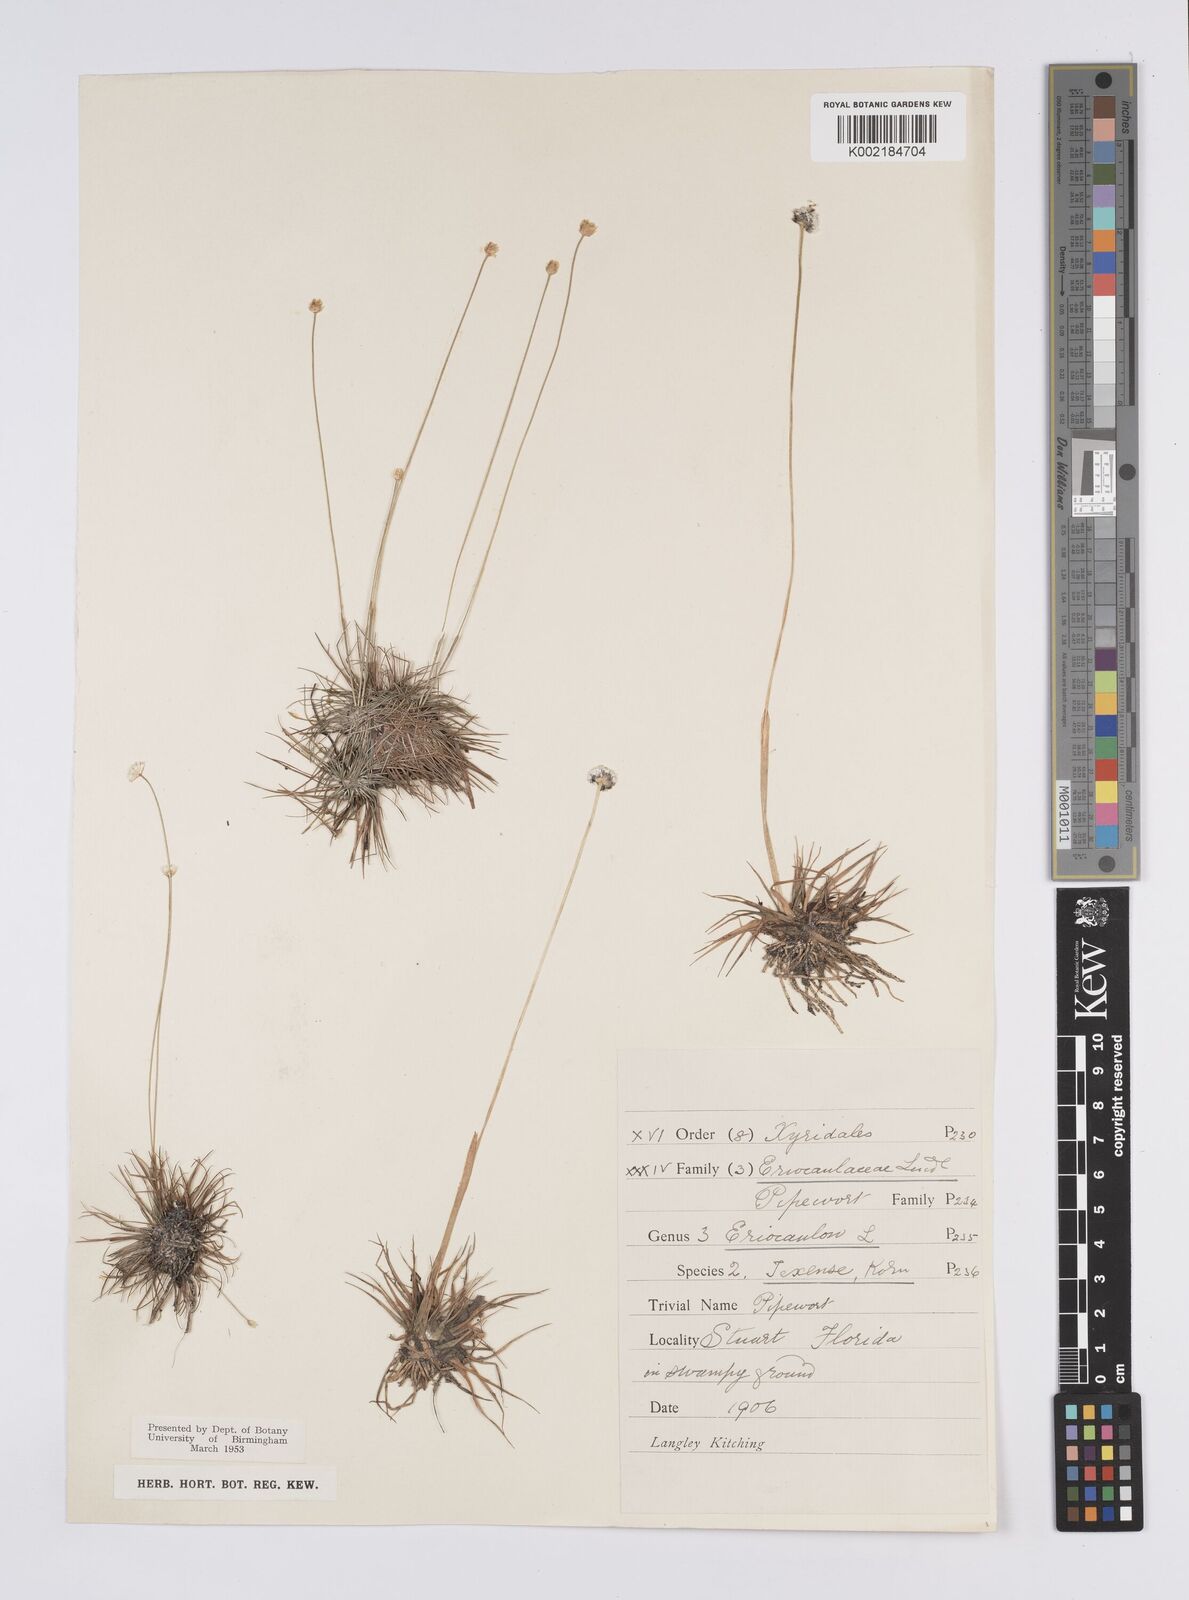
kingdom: Plantae
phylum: Tracheophyta
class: Liliopsida
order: Poales
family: Eriocaulaceae
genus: Eriocaulon
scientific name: Eriocaulon texense
